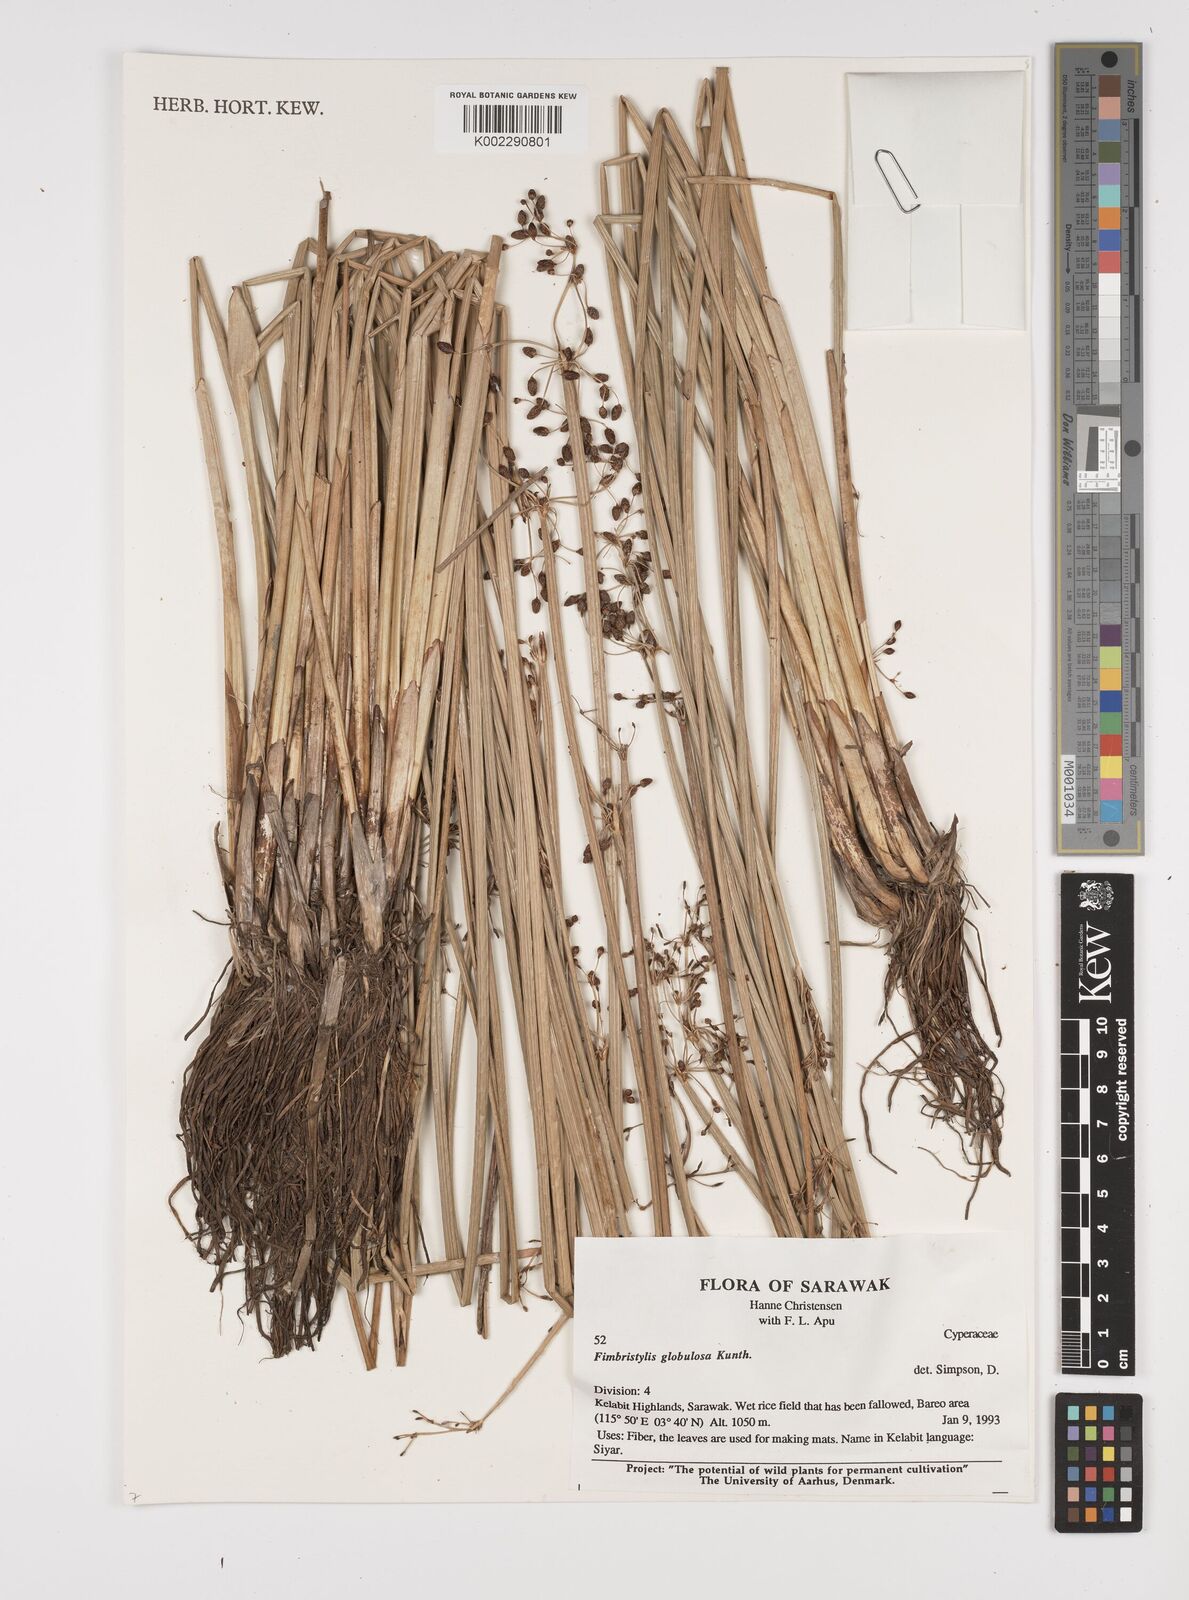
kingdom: Plantae
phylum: Tracheophyta
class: Liliopsida
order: Poales
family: Cyperaceae
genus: Fimbristylis
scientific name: Fimbristylis umbellaris
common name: Globular fimbristylis
